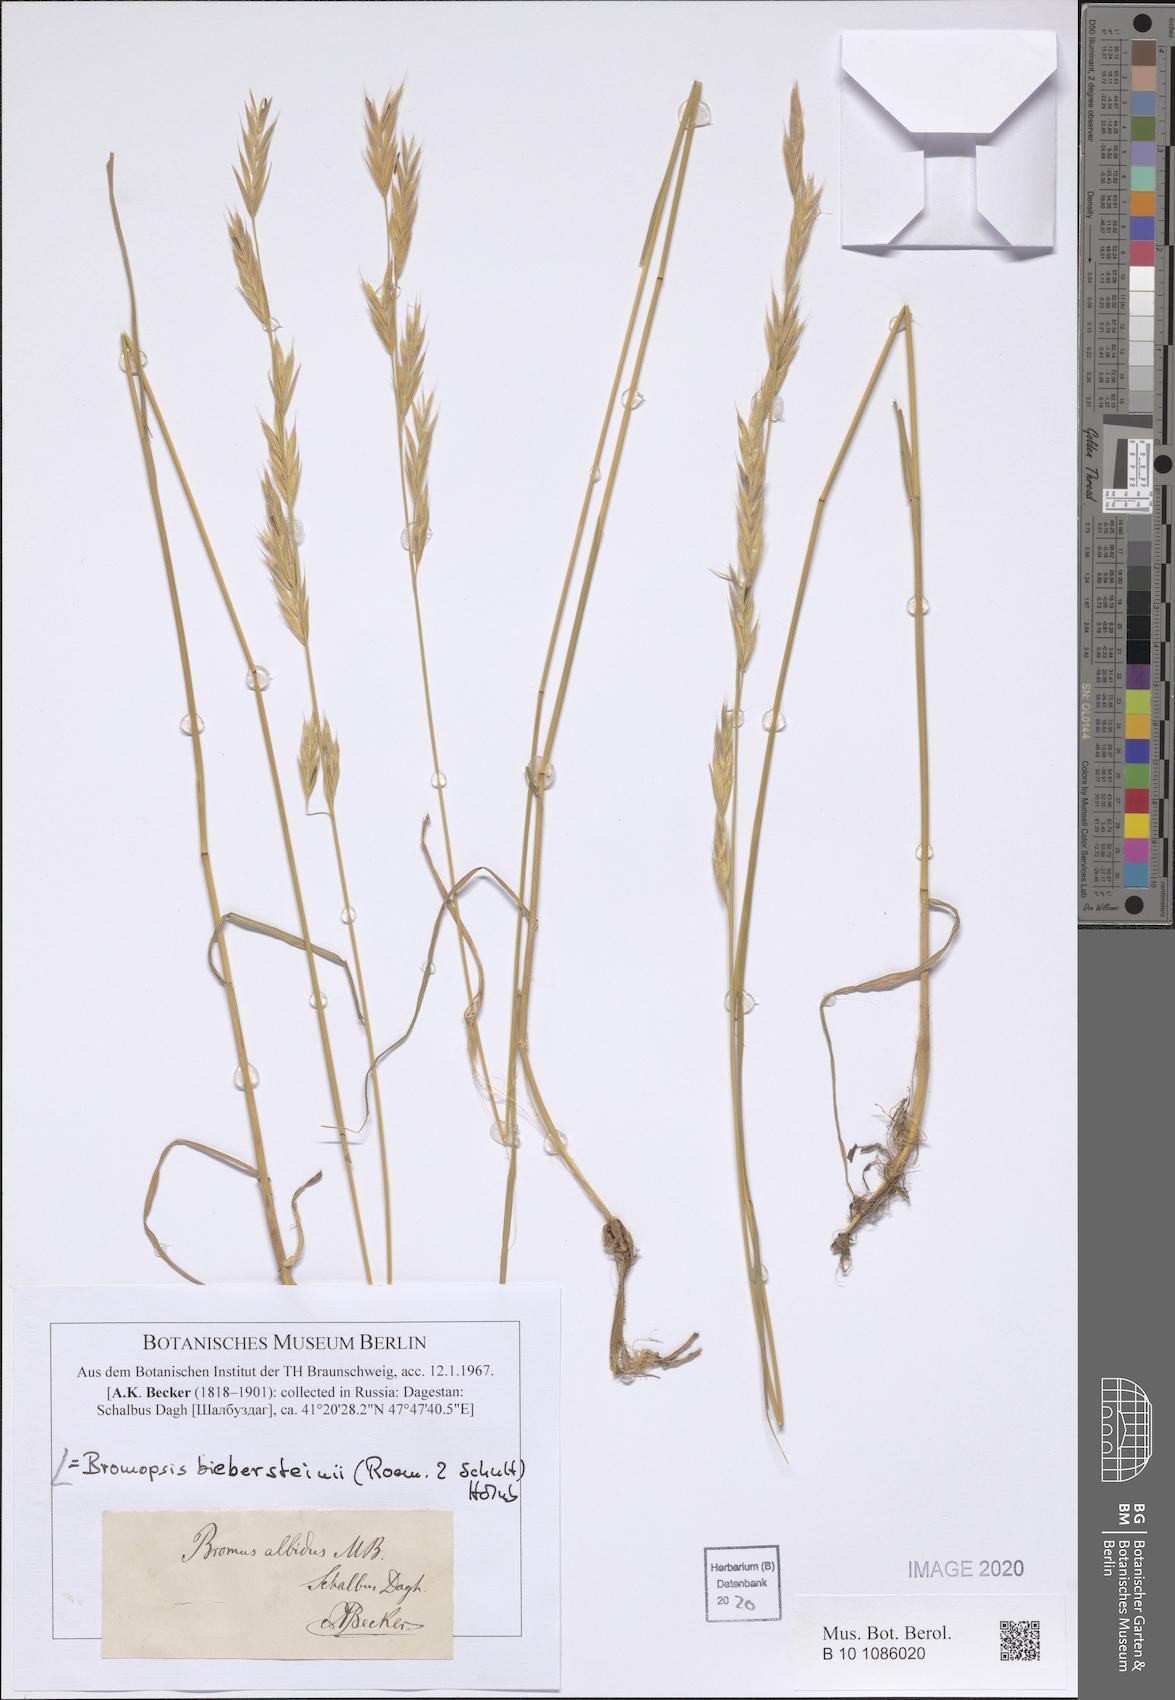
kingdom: Plantae
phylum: Tracheophyta
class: Liliopsida
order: Poales
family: Poaceae
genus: Bromus
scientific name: Bromus biebersteinii
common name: Bieberstein brome
